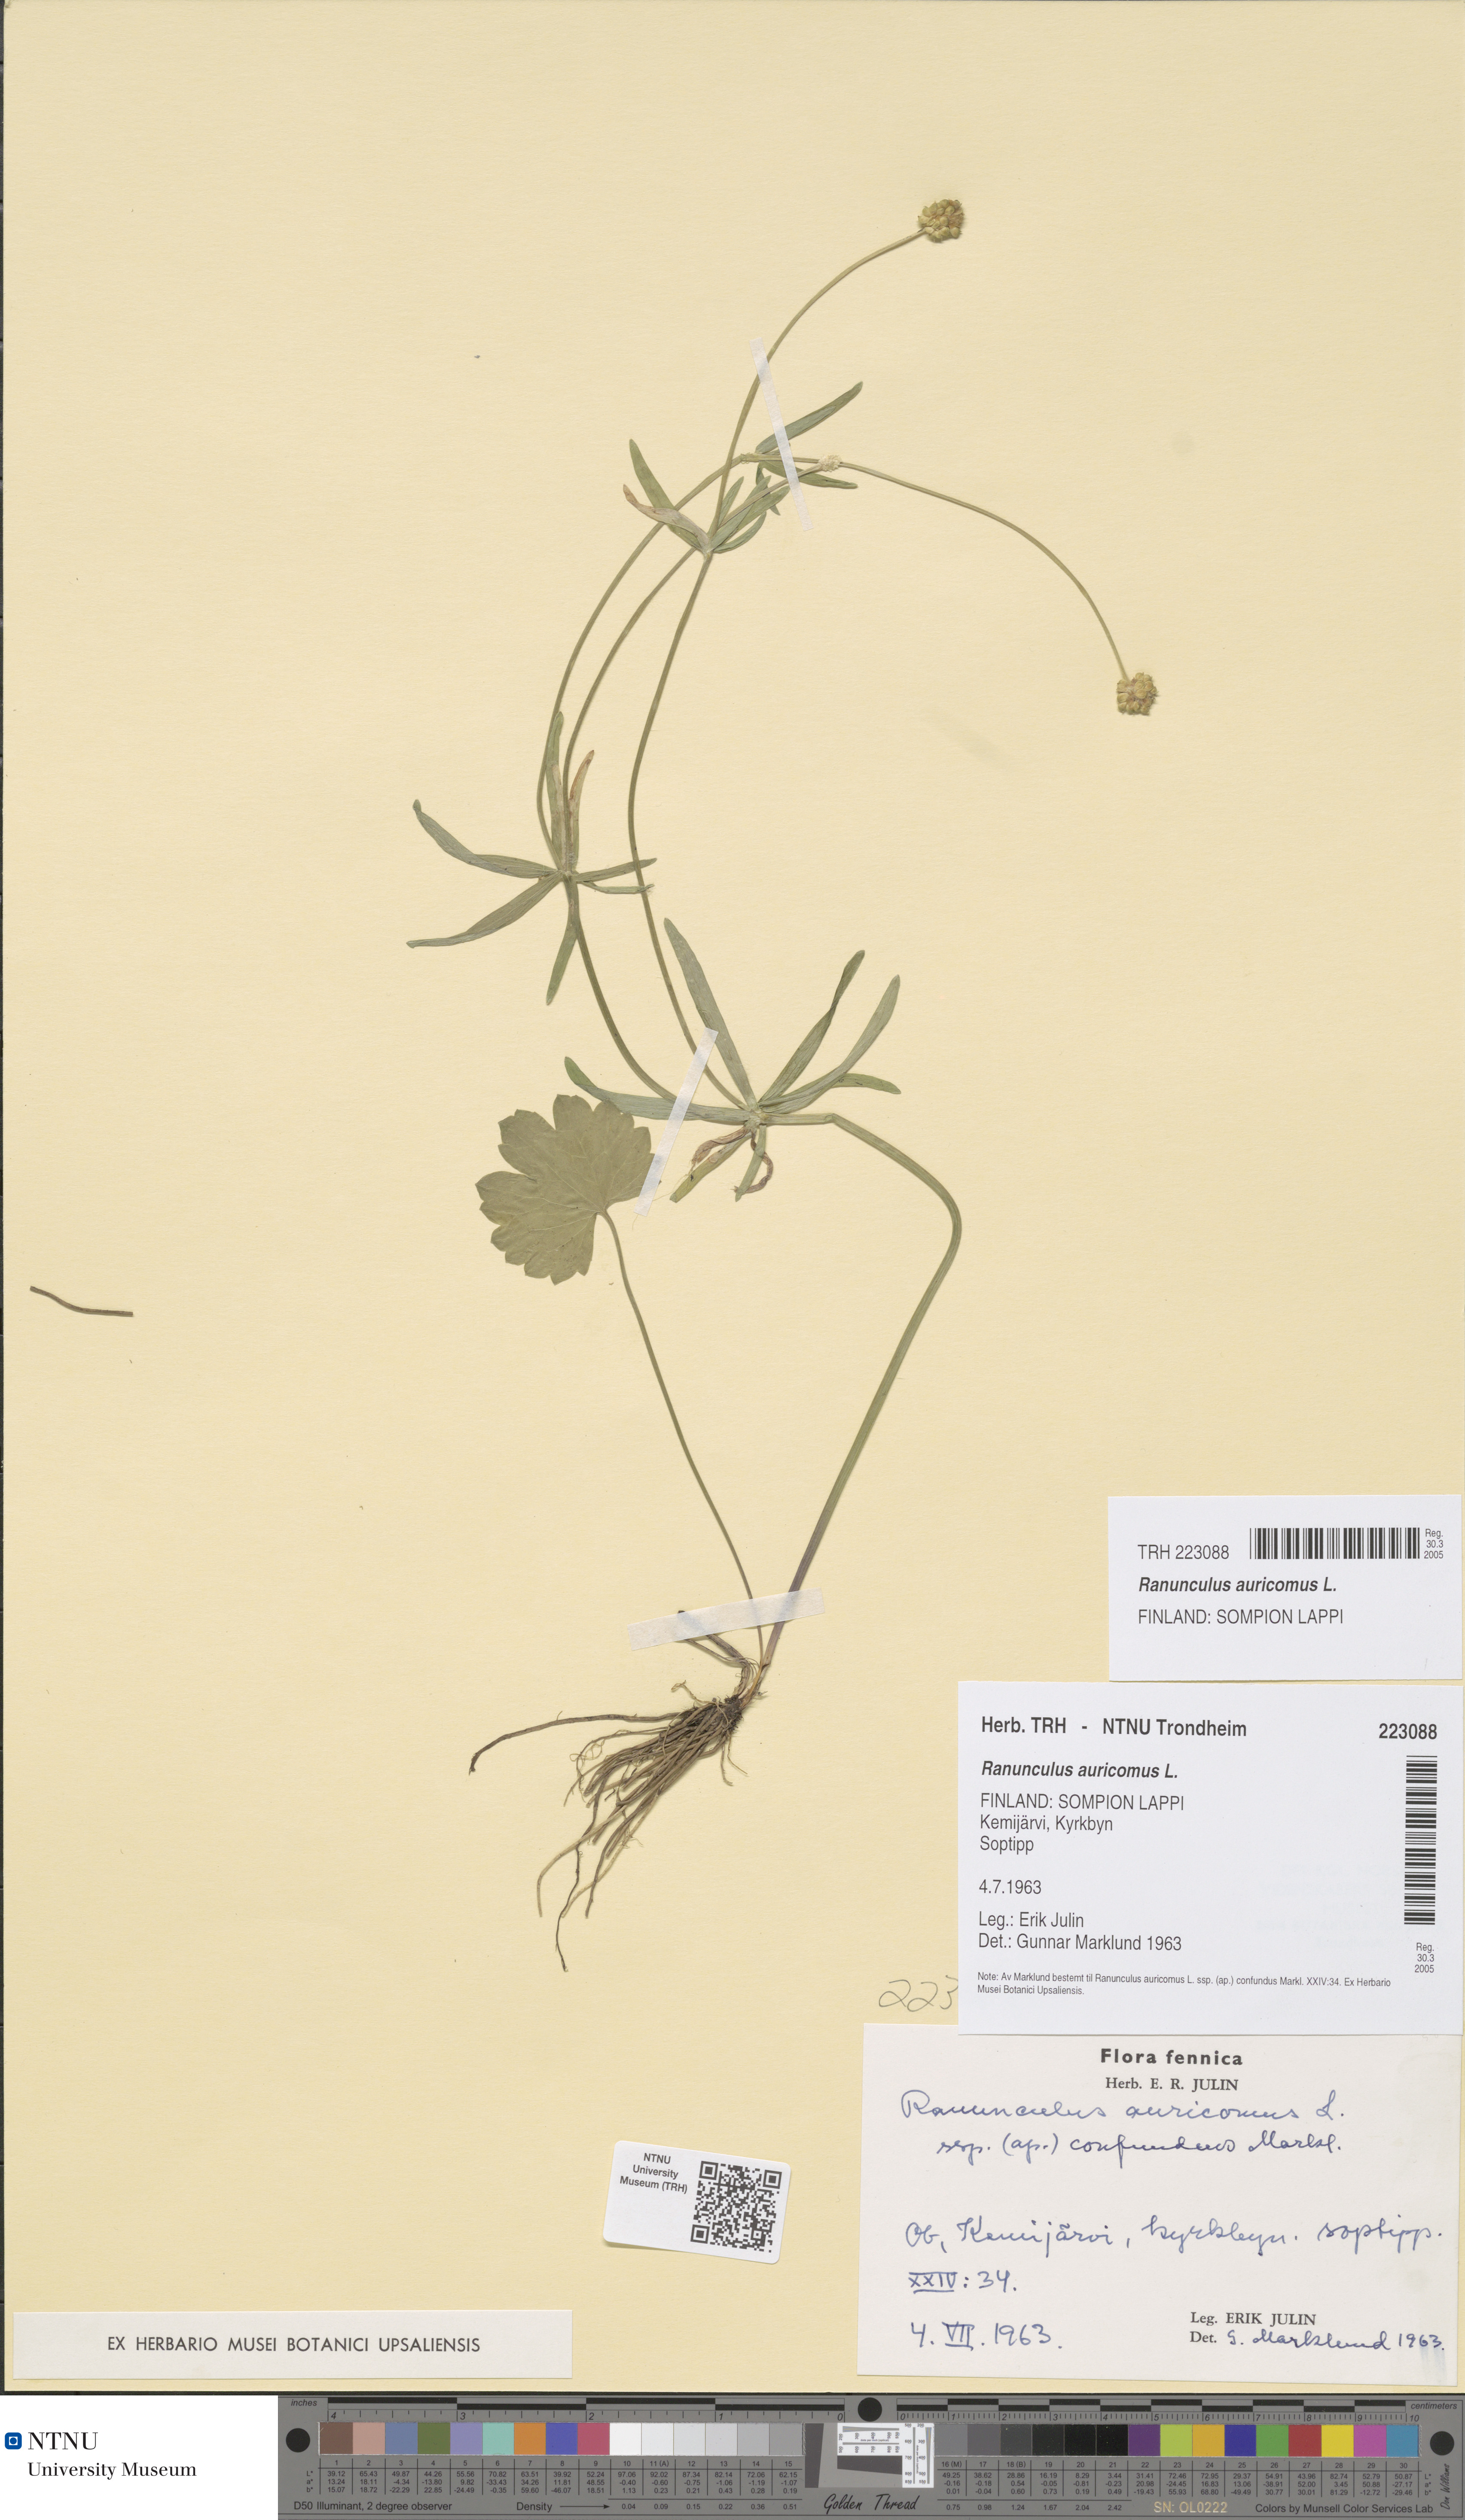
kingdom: Plantae
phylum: Tracheophyta
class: Magnoliopsida
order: Ranunculales
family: Ranunculaceae
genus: Ranunculus
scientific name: Ranunculus auricomus
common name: Goldilocks buttercup
